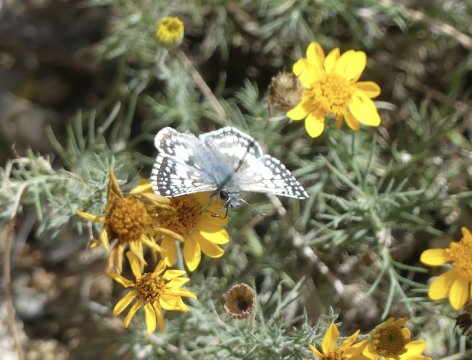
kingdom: Animalia
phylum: Arthropoda
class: Insecta
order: Lepidoptera
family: Hesperiidae
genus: Pyrgus
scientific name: Pyrgus communis
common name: White Checkered-Skipper
